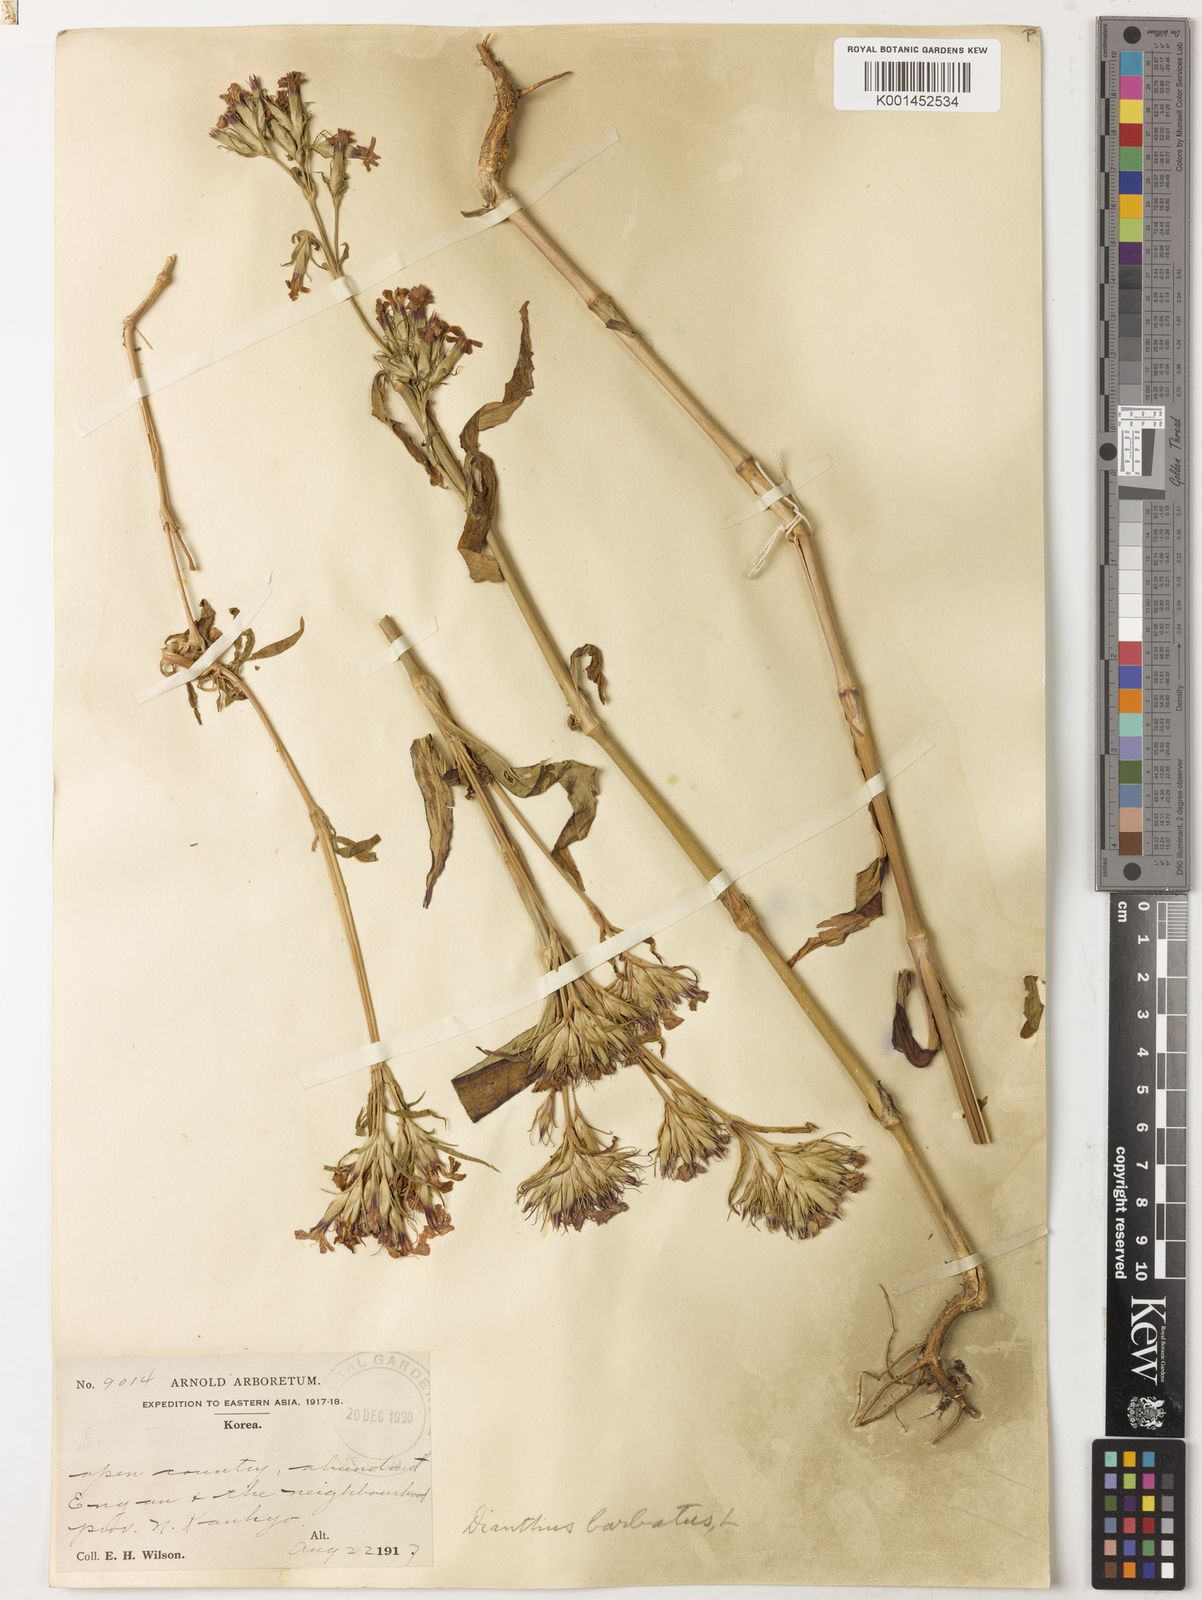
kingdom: Plantae
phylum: Tracheophyta
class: Magnoliopsida
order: Caryophyllales
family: Caryophyllaceae
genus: Dianthus
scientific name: Dianthus barbatus
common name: Sweet-william
